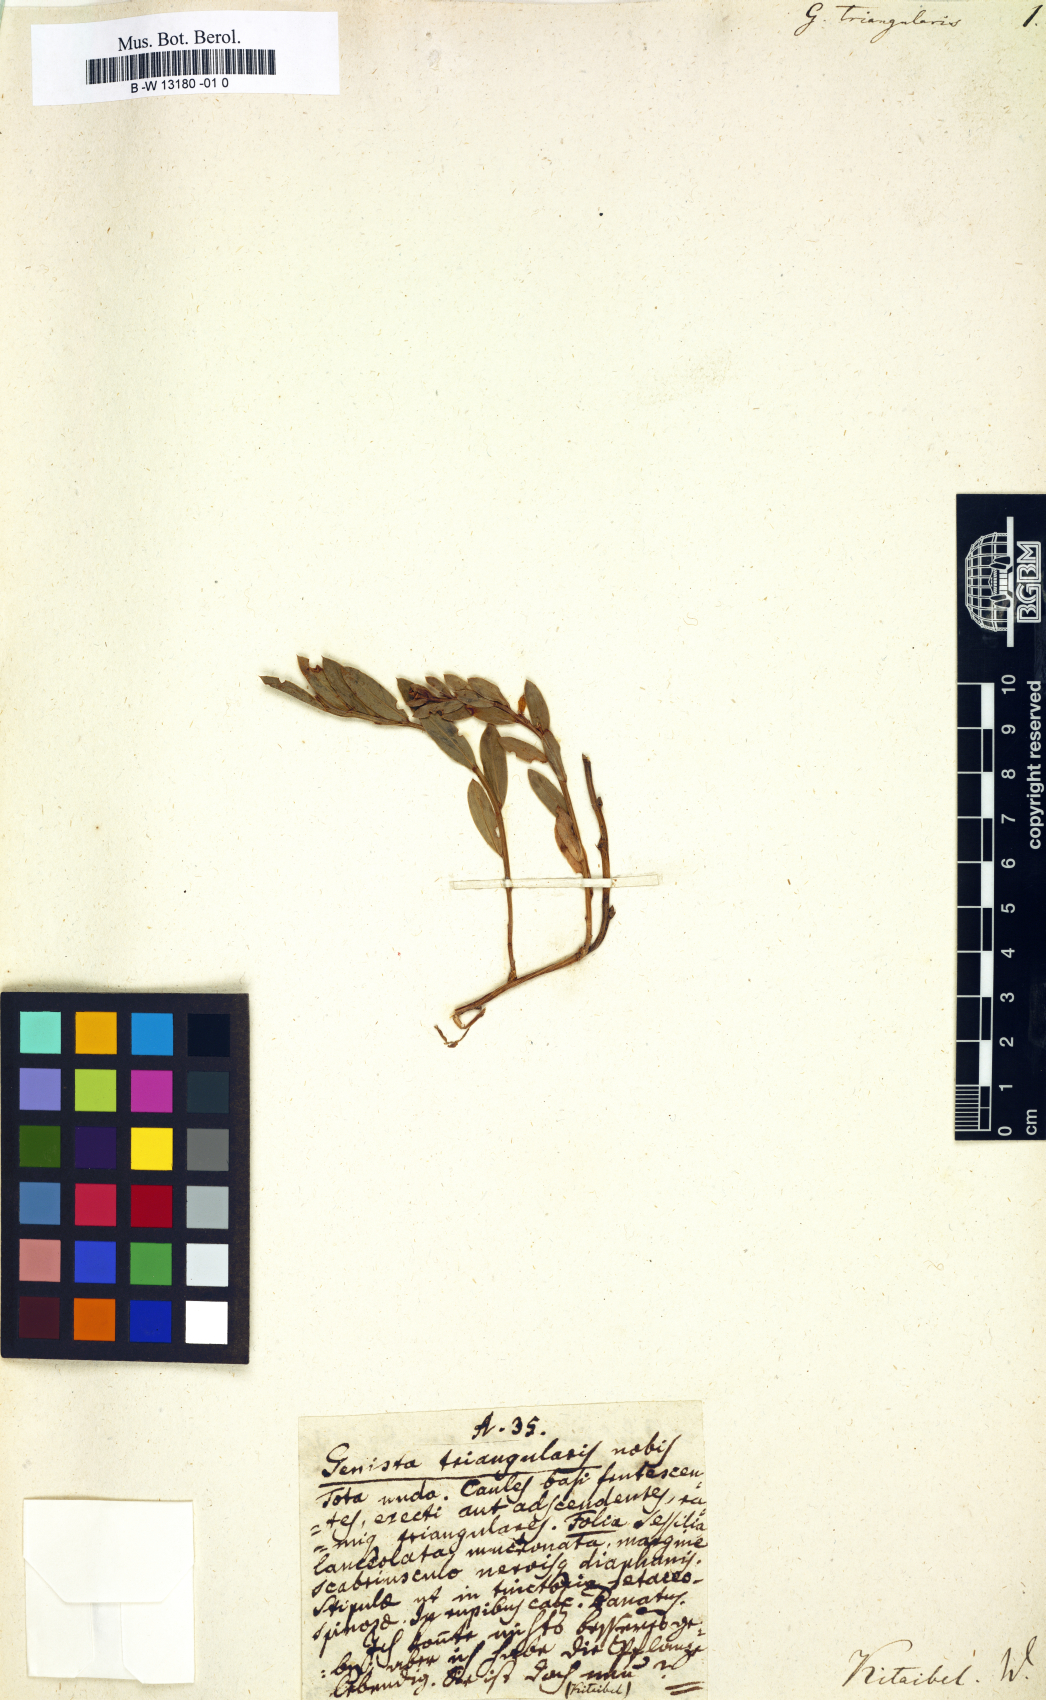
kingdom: Plantae
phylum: Tracheophyta
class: Magnoliopsida
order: Fabales
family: Fabaceae
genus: Genista
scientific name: Genista lydia
